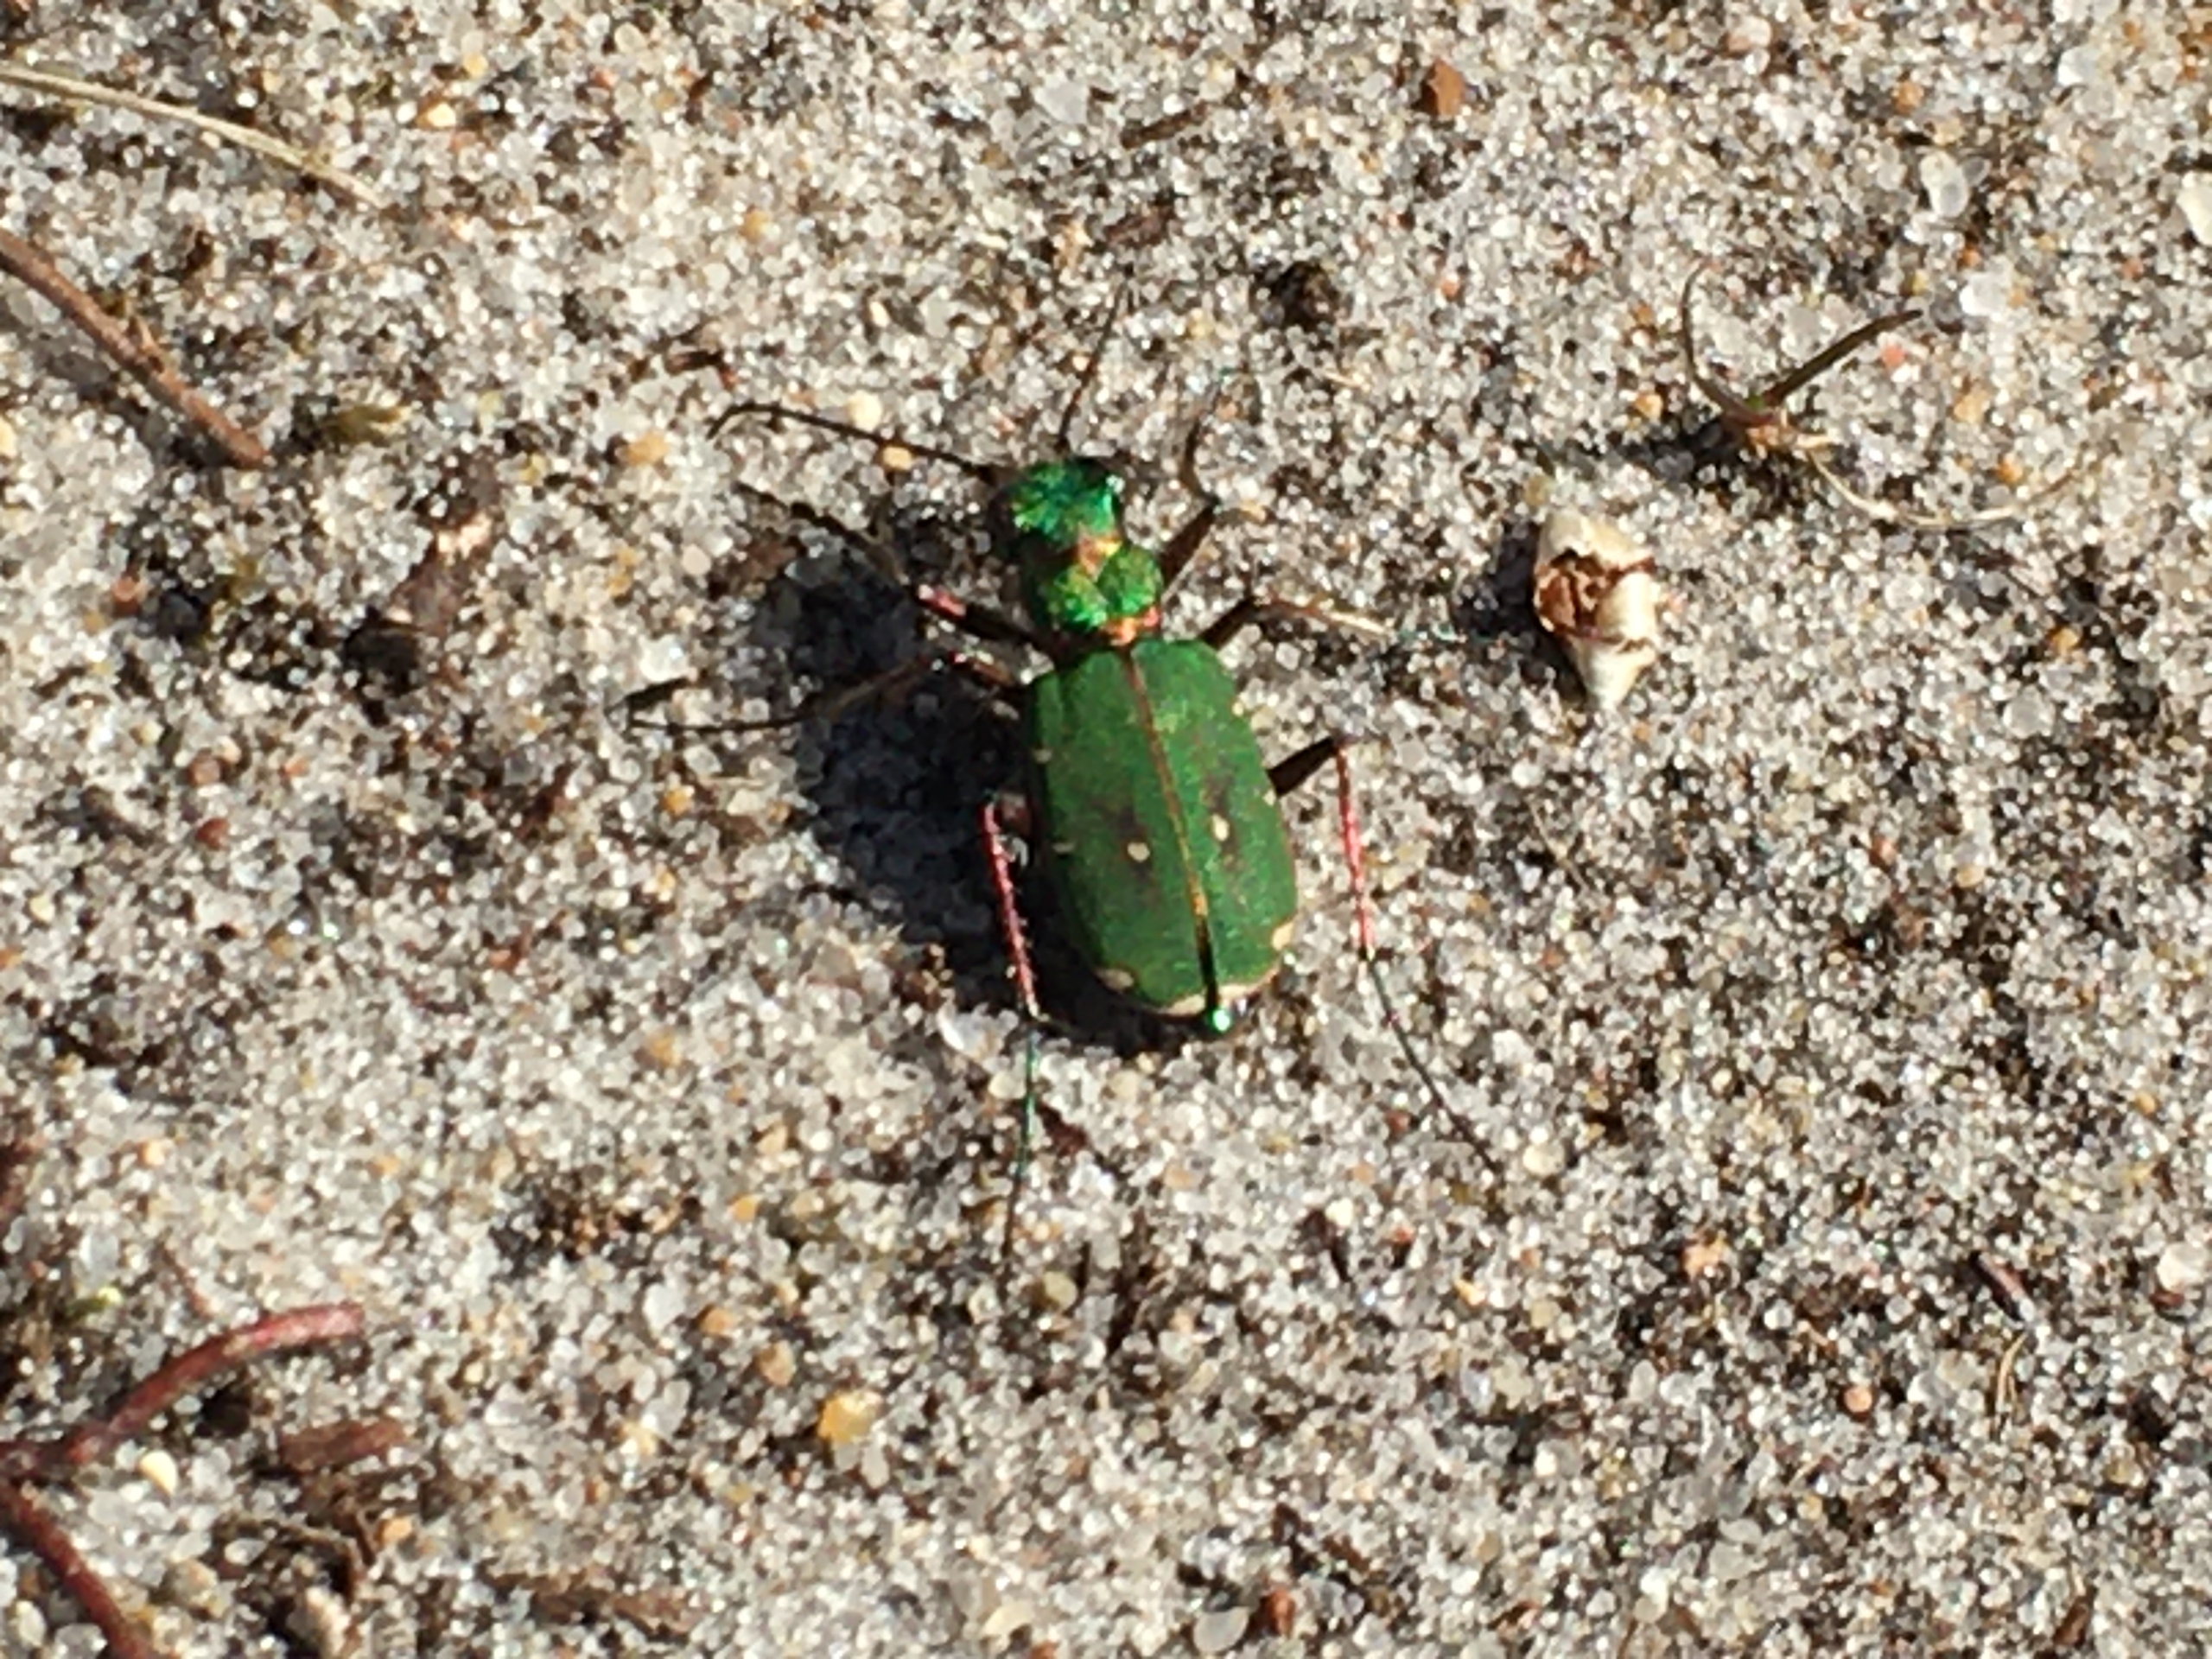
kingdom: Animalia
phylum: Arthropoda
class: Insecta
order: Coleoptera
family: Carabidae
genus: Cicindela
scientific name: Cicindela campestris
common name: Grøn sandspringer
